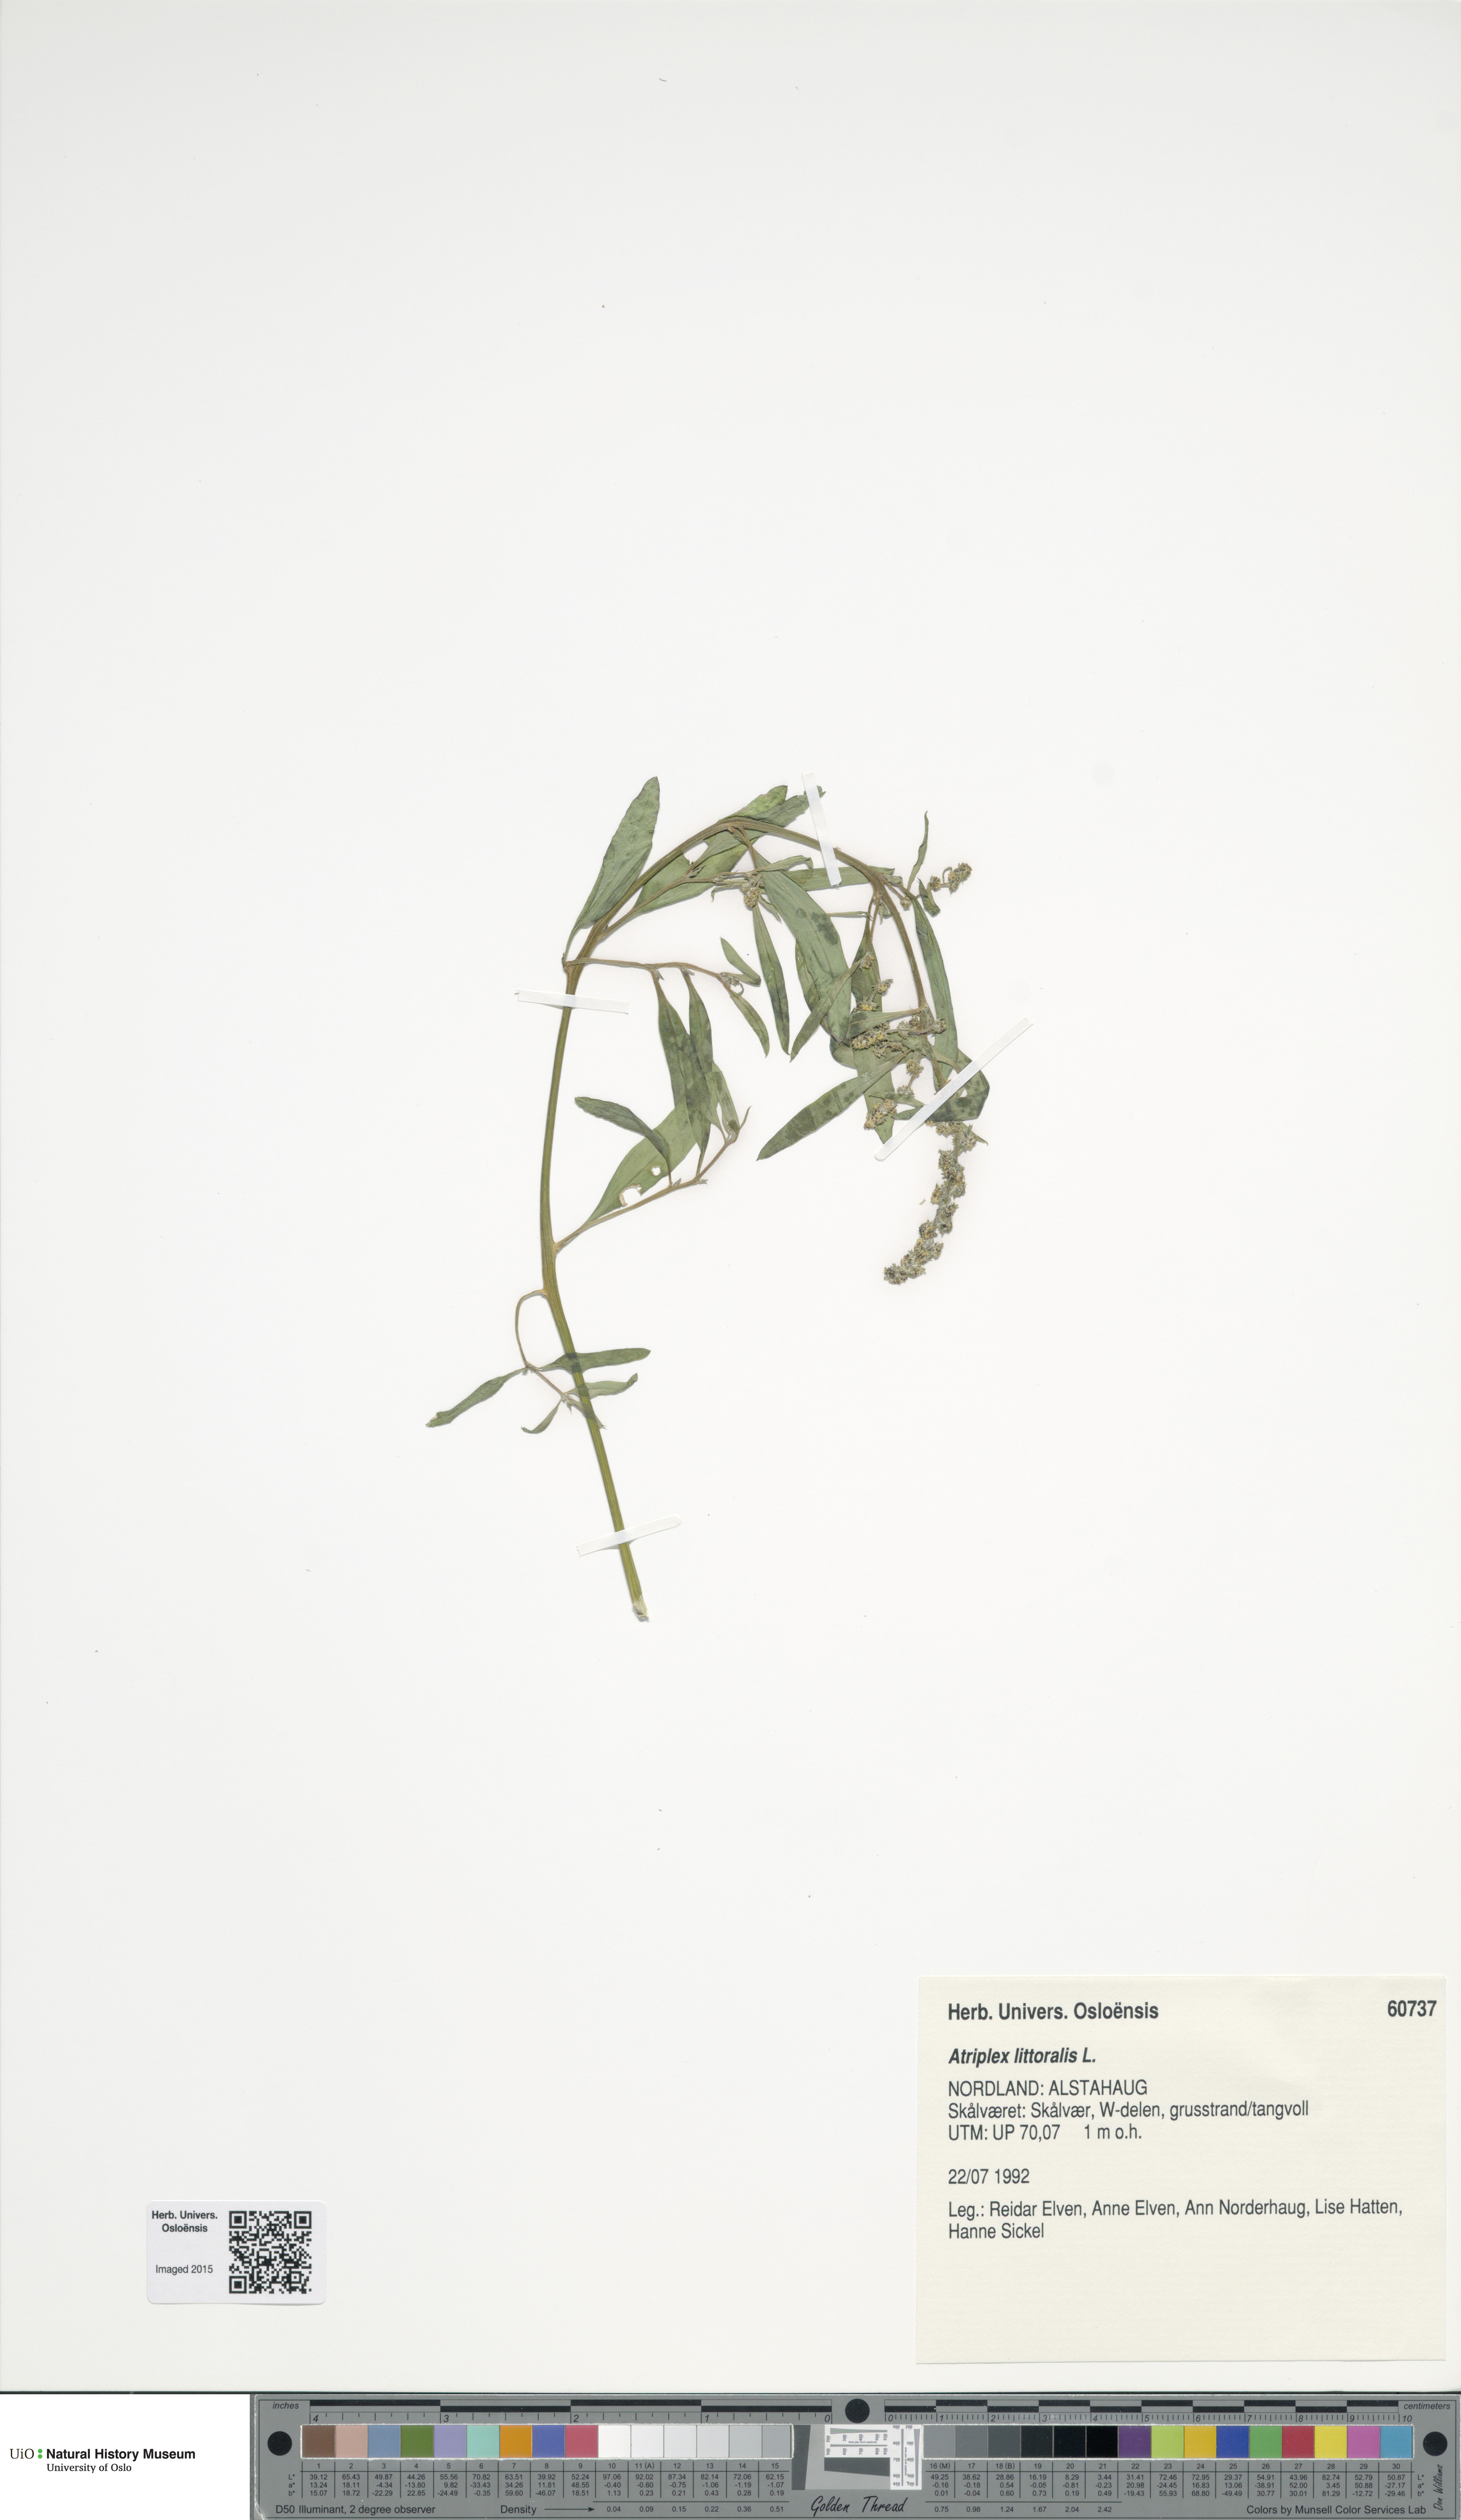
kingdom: Plantae
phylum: Tracheophyta
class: Magnoliopsida
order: Caryophyllales
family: Amaranthaceae
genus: Atriplex
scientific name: Atriplex littoralis
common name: Grass-leaved orache
